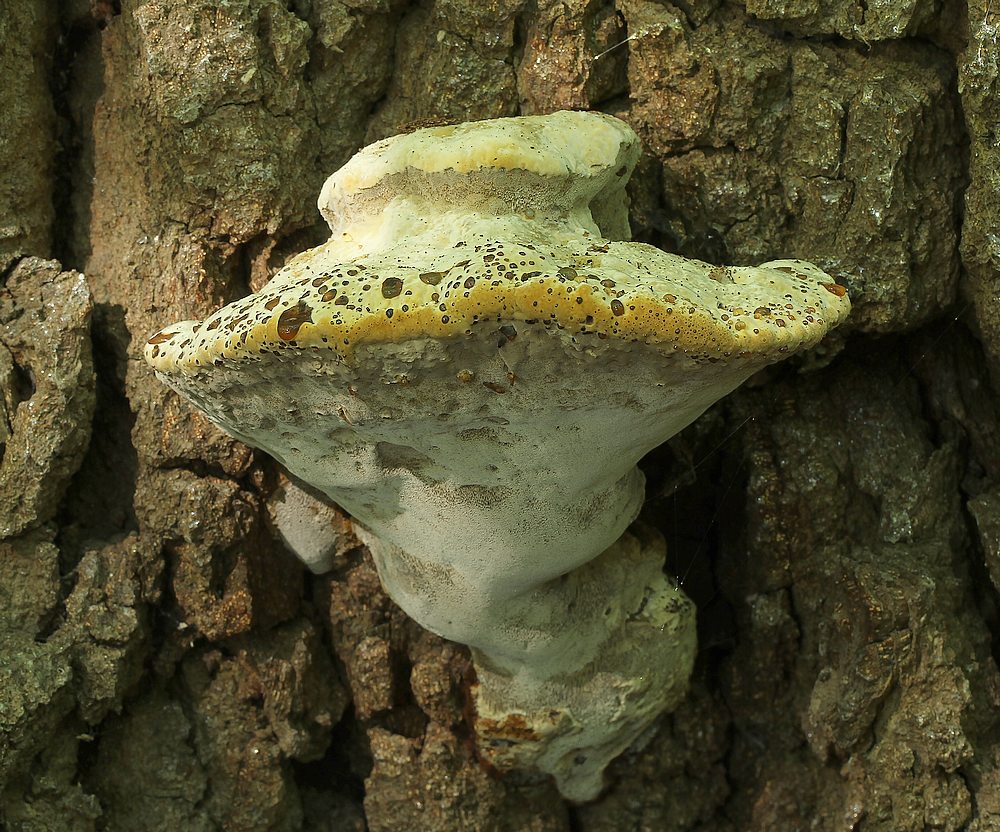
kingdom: Fungi
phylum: Basidiomycota
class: Agaricomycetes
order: Hymenochaetales
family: Hymenochaetaceae
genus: Pseudoinonotus
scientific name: Pseudoinonotus dryadeus
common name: ege-spejlporesvamp
